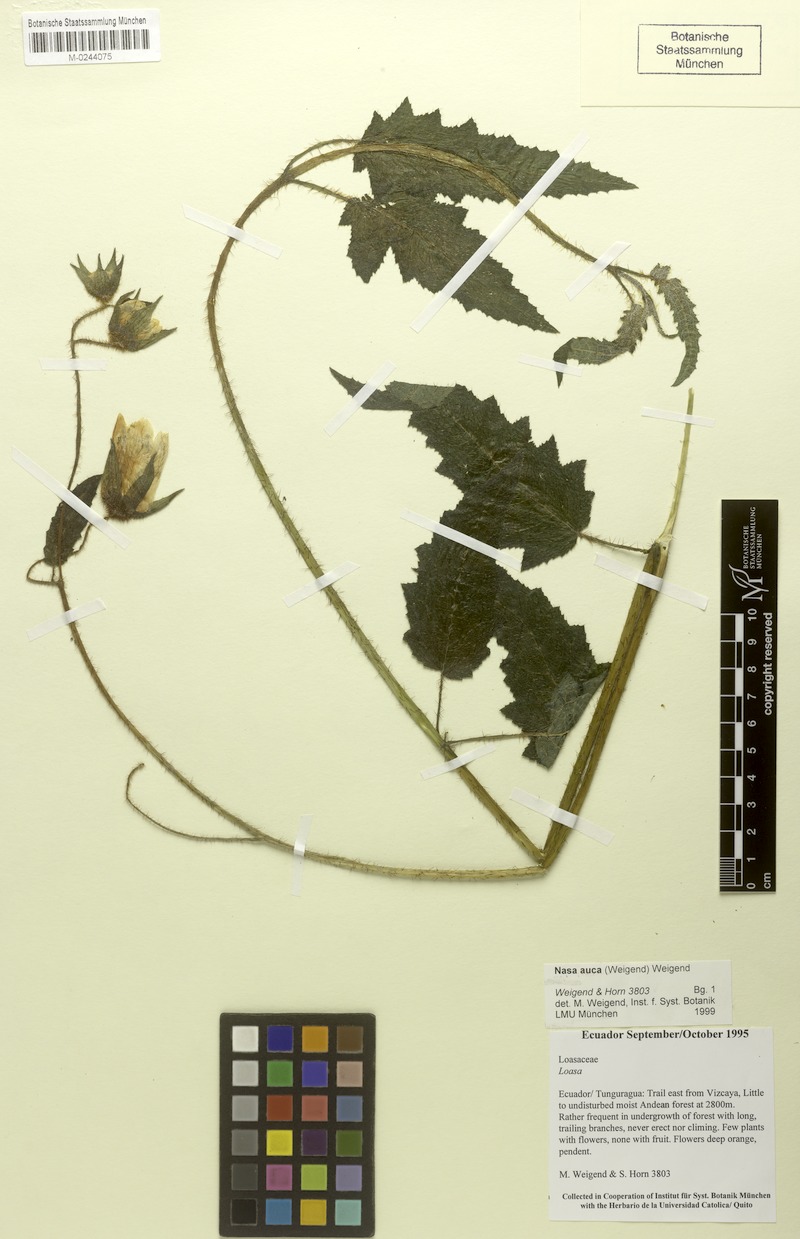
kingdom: Plantae
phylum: Tracheophyta
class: Magnoliopsida
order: Cornales
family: Loasaceae
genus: Nasa
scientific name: Nasa auca
